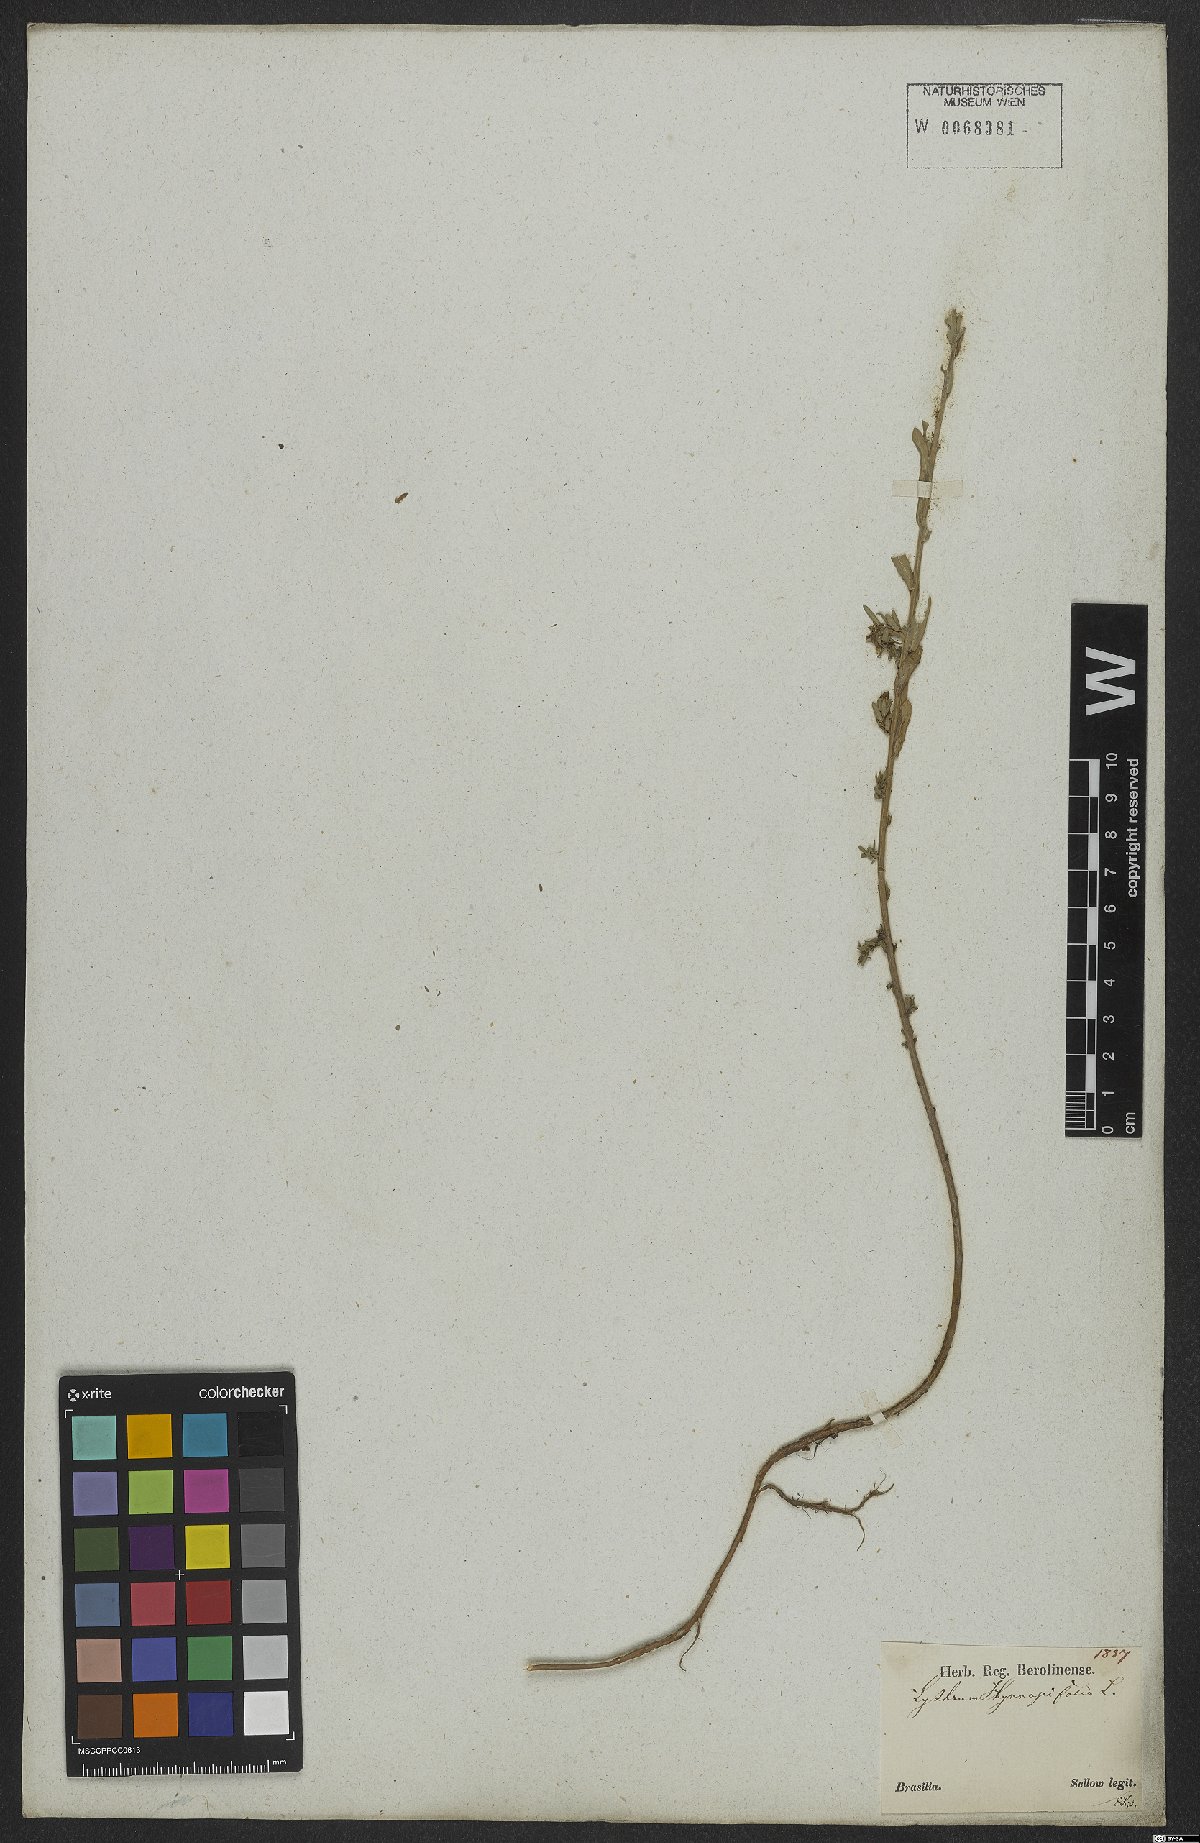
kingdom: Plantae
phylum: Tracheophyta
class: Magnoliopsida
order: Myrtales
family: Lythraceae
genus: Lythrum
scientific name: Lythrum hyssopifolia
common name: Grass-poly
